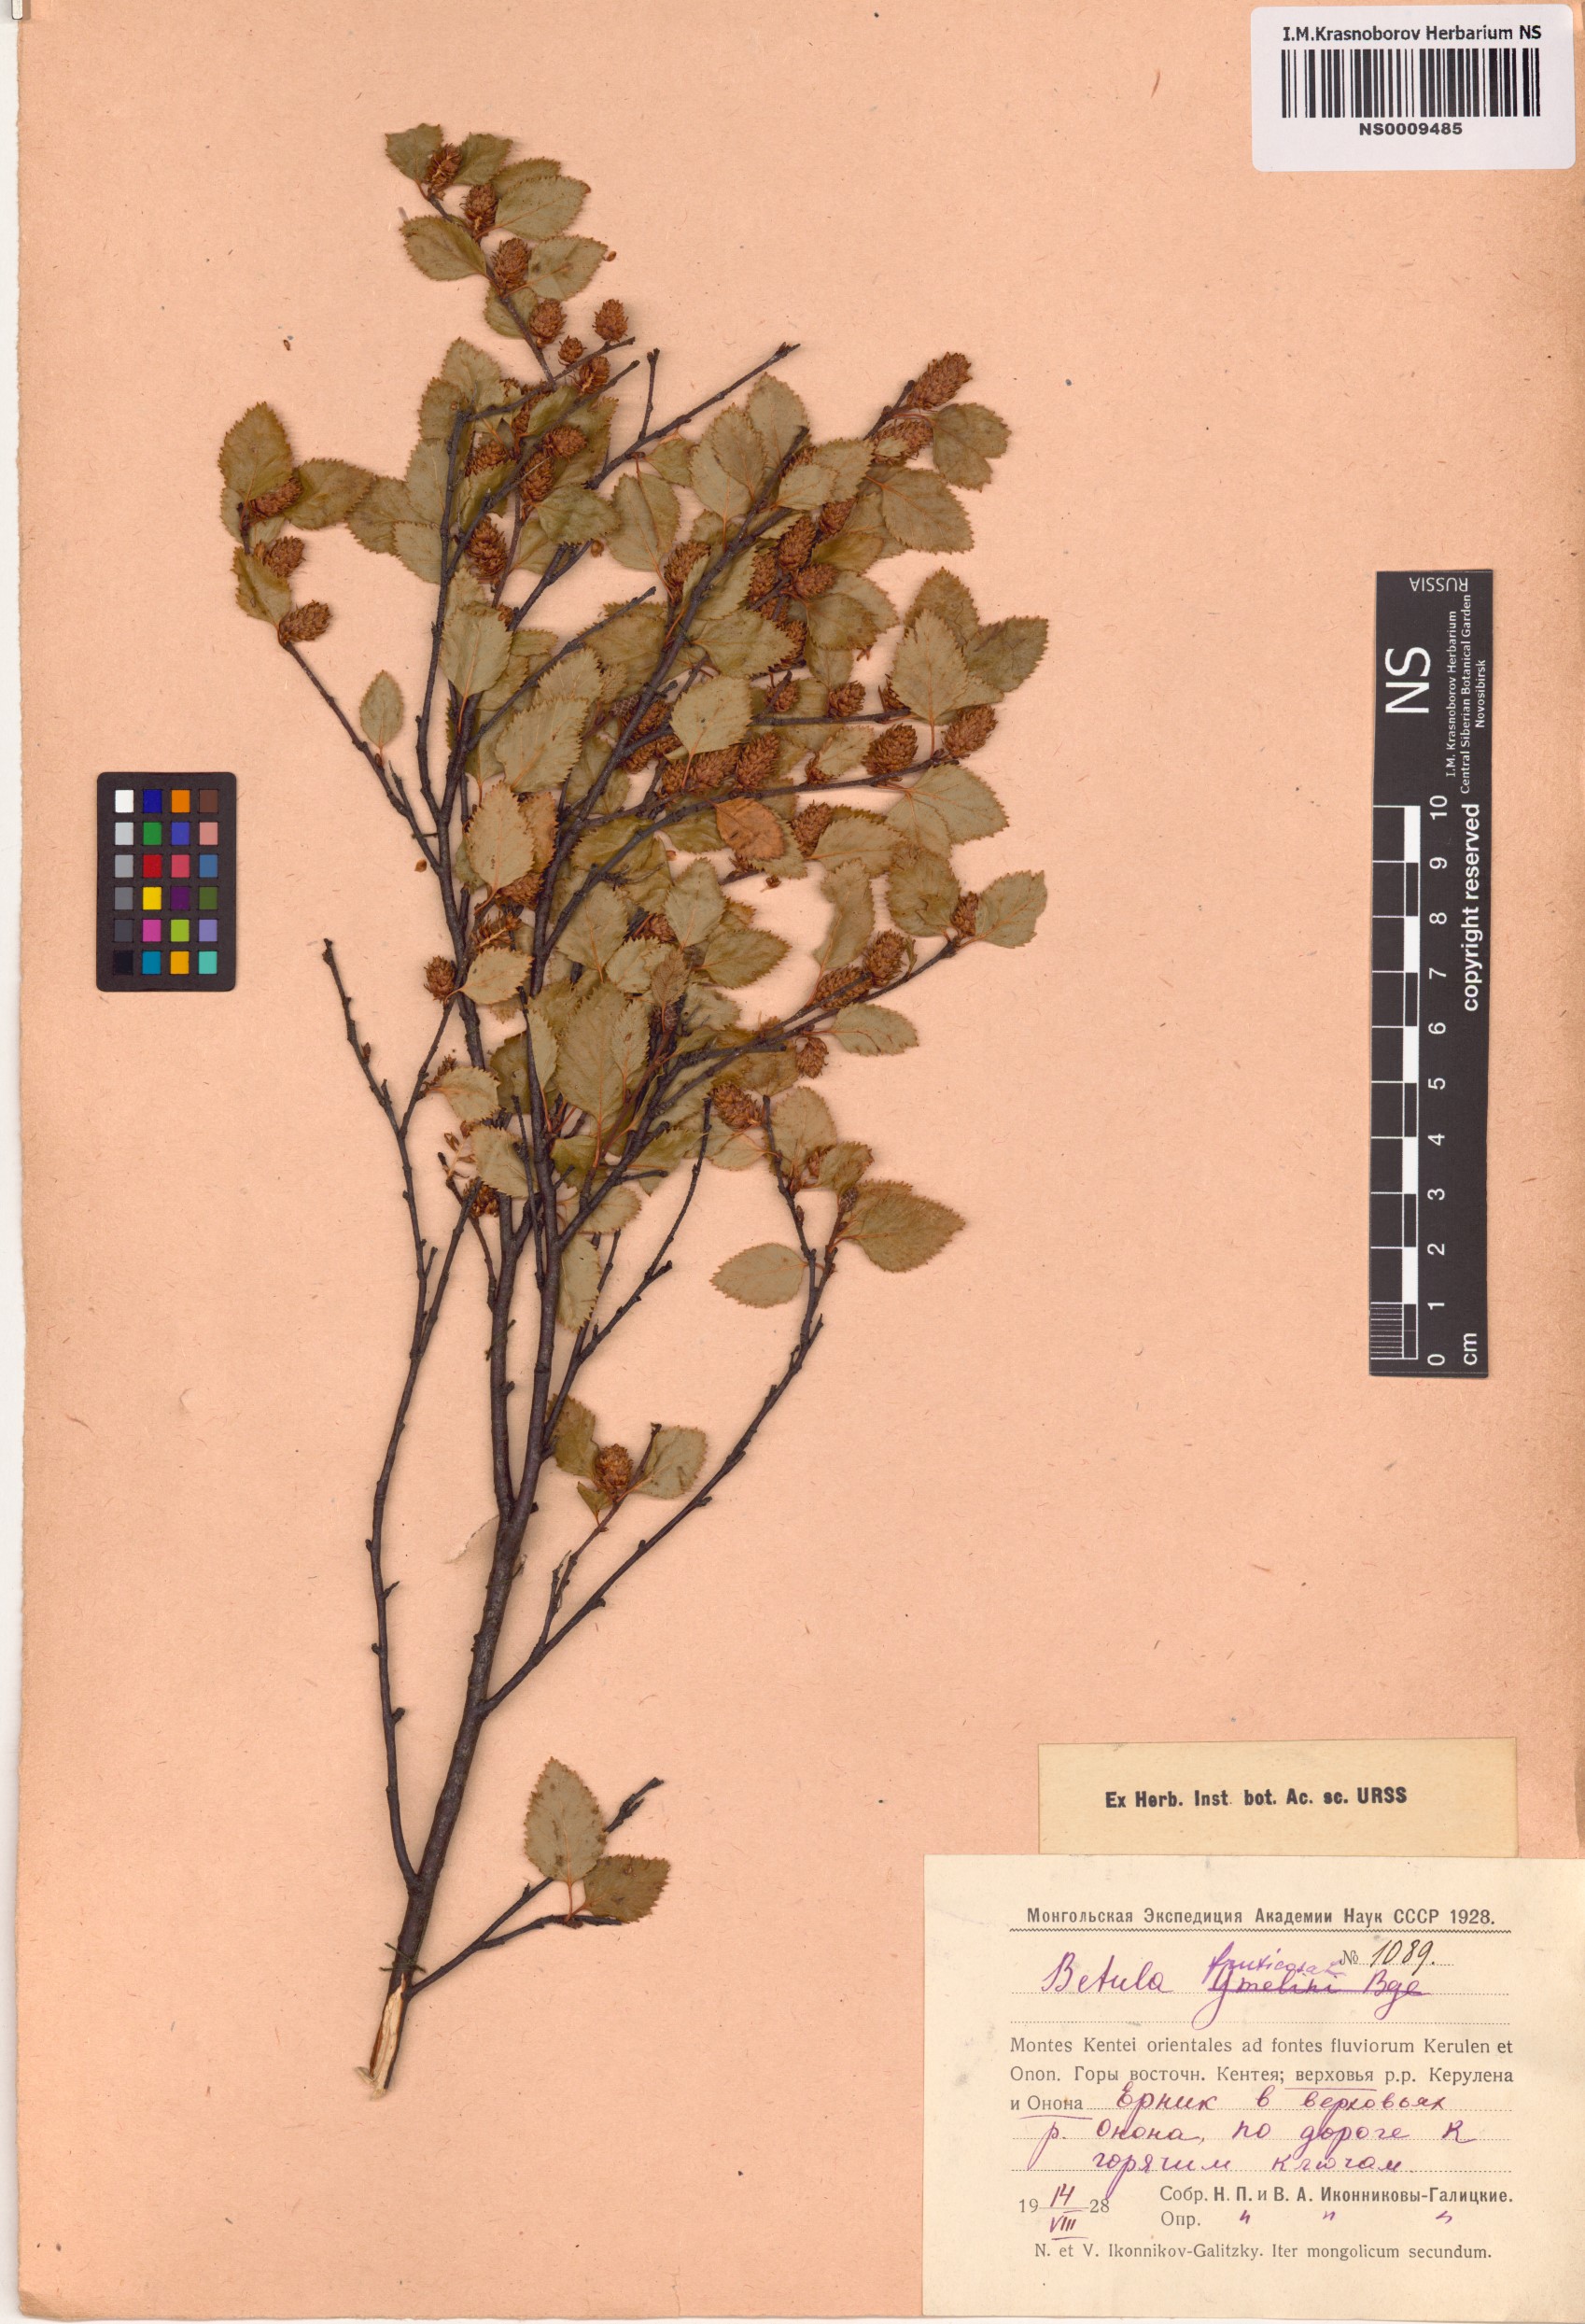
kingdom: Plantae
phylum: Tracheophyta
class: Magnoliopsida
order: Fagales
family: Betulaceae
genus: Betula
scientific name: Betula fruticosa
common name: Japanese bog birch
